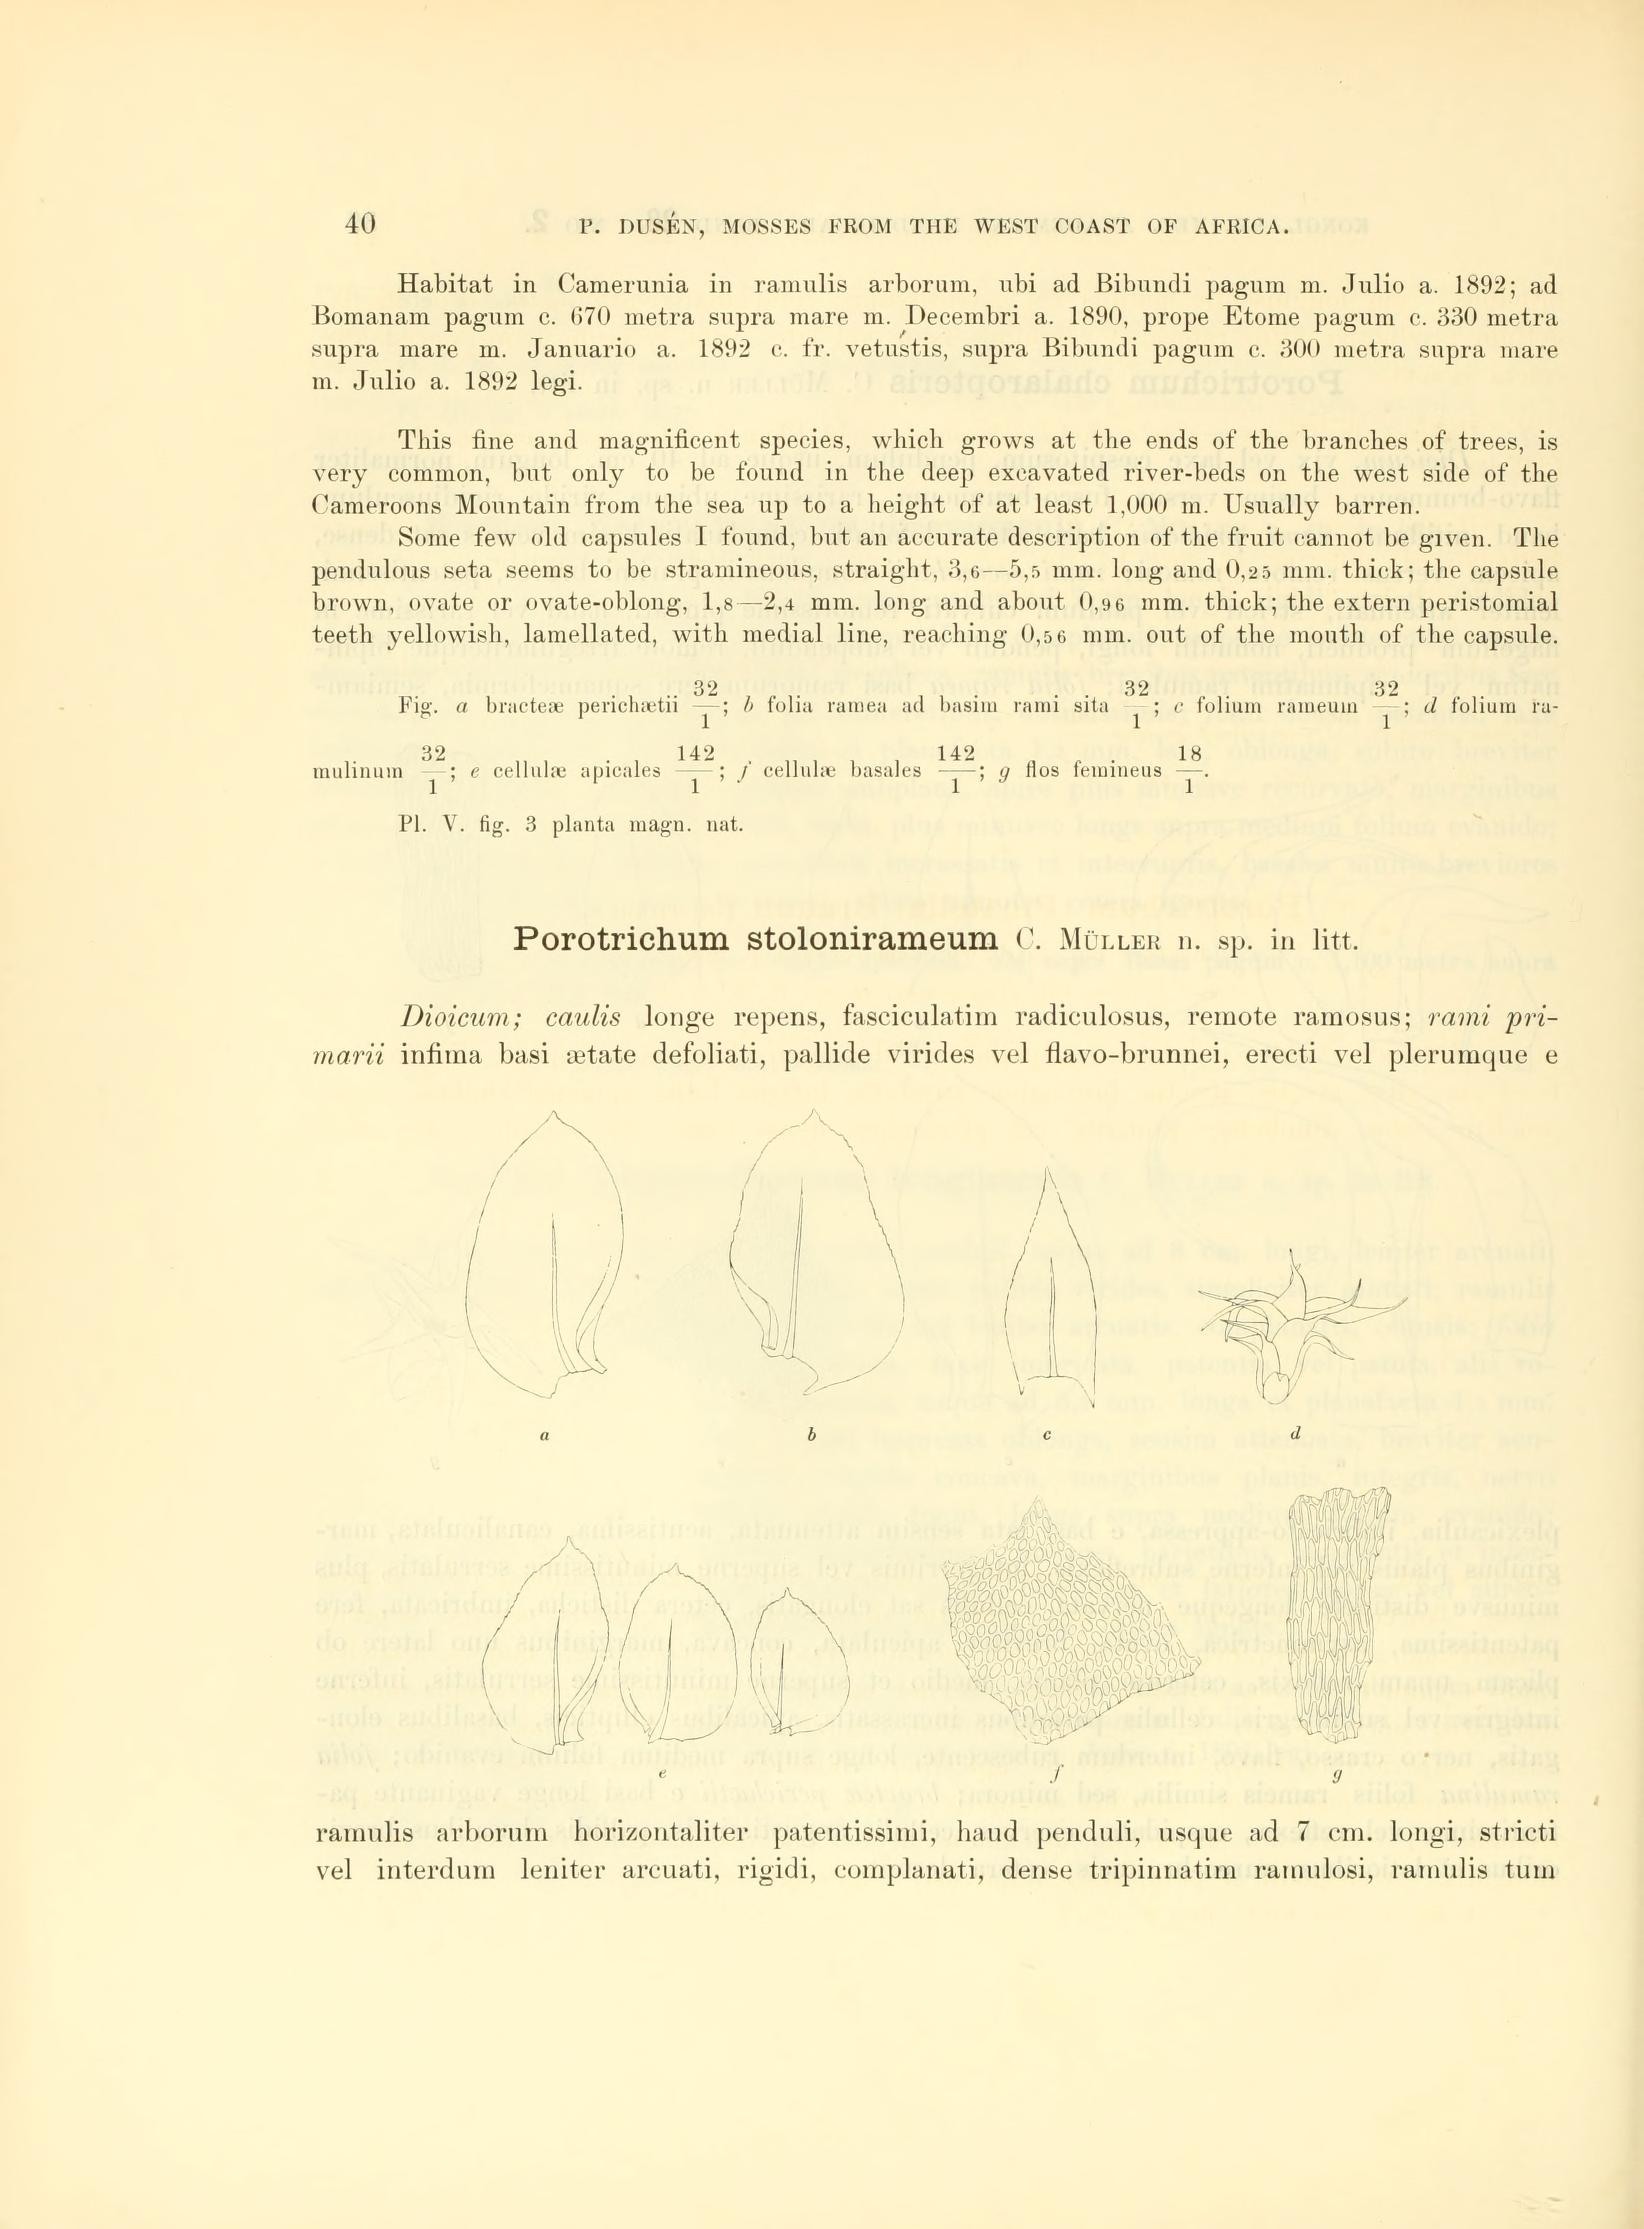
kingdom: Plantae
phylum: Bryophyta
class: Bryopsida
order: Hypnales
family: Orthostichellaceae
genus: Pinnatidendron
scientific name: Pinnatidendron piniforme
